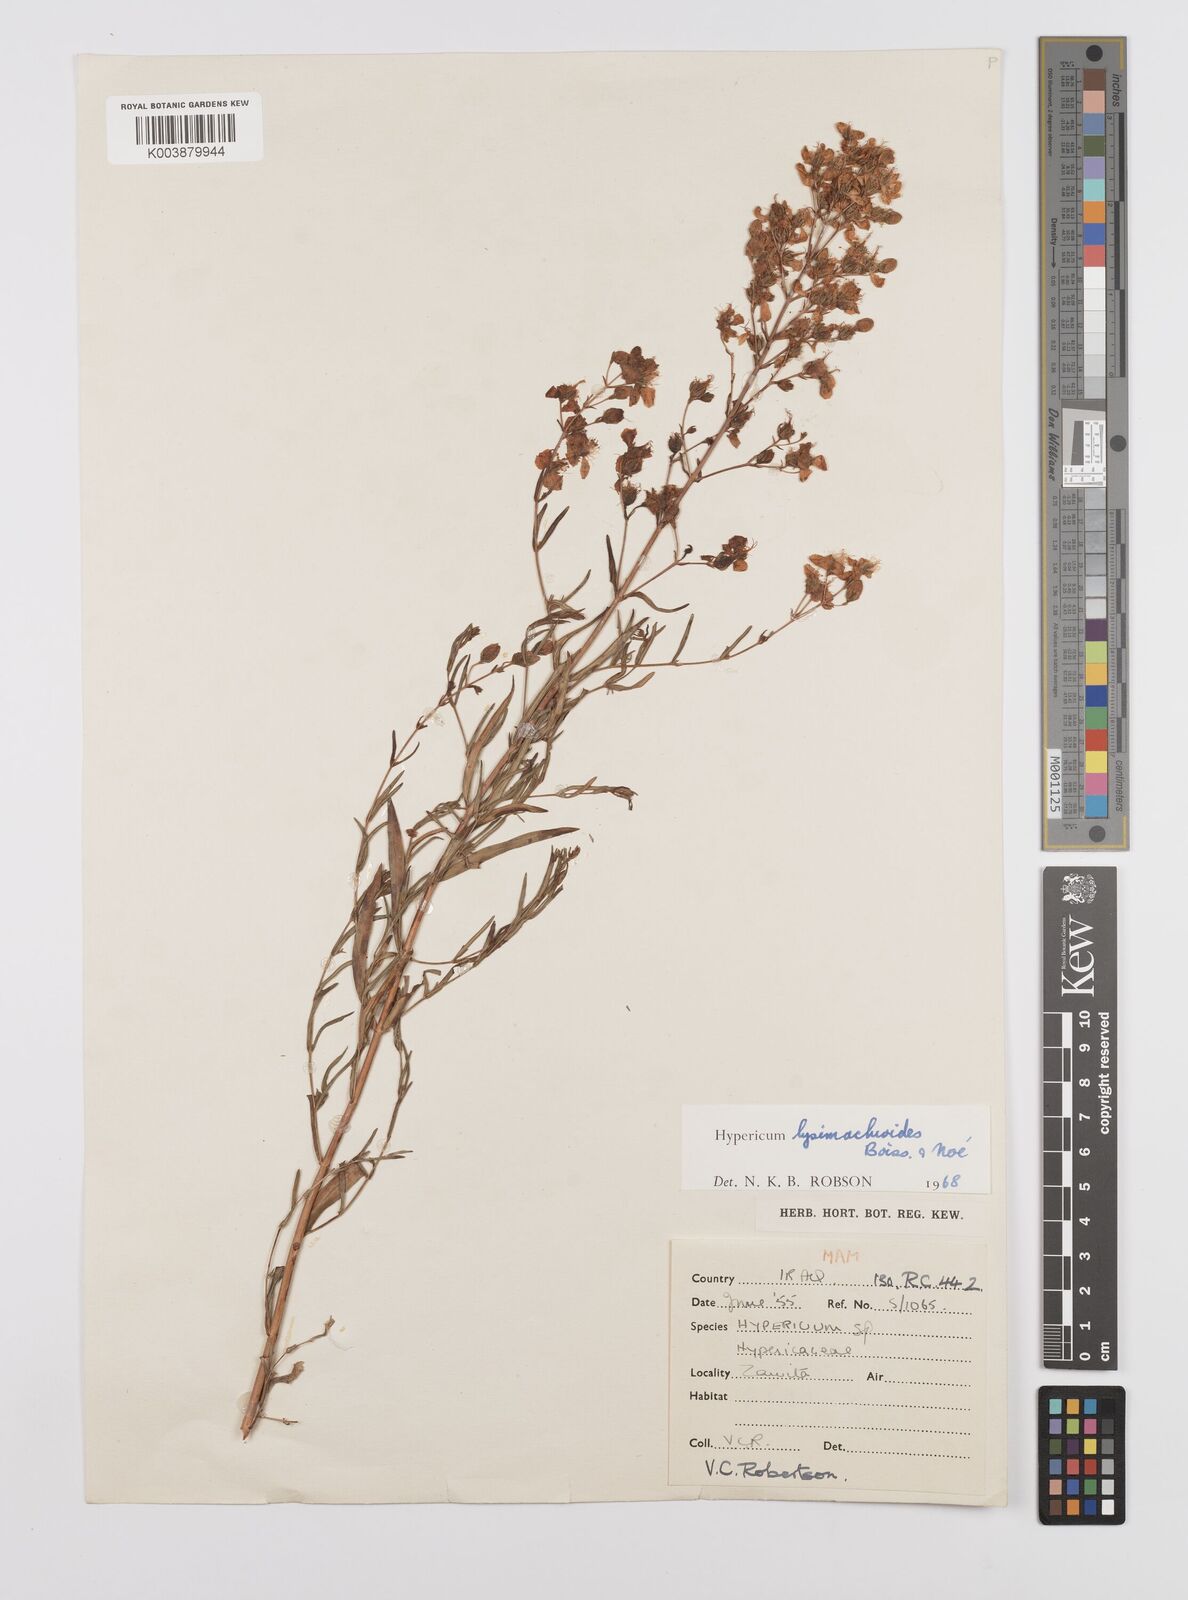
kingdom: Plantae
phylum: Tracheophyta
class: Magnoliopsida
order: Malpighiales
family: Hypericaceae
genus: Hypericum
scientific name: Hypericum lysimachioides
